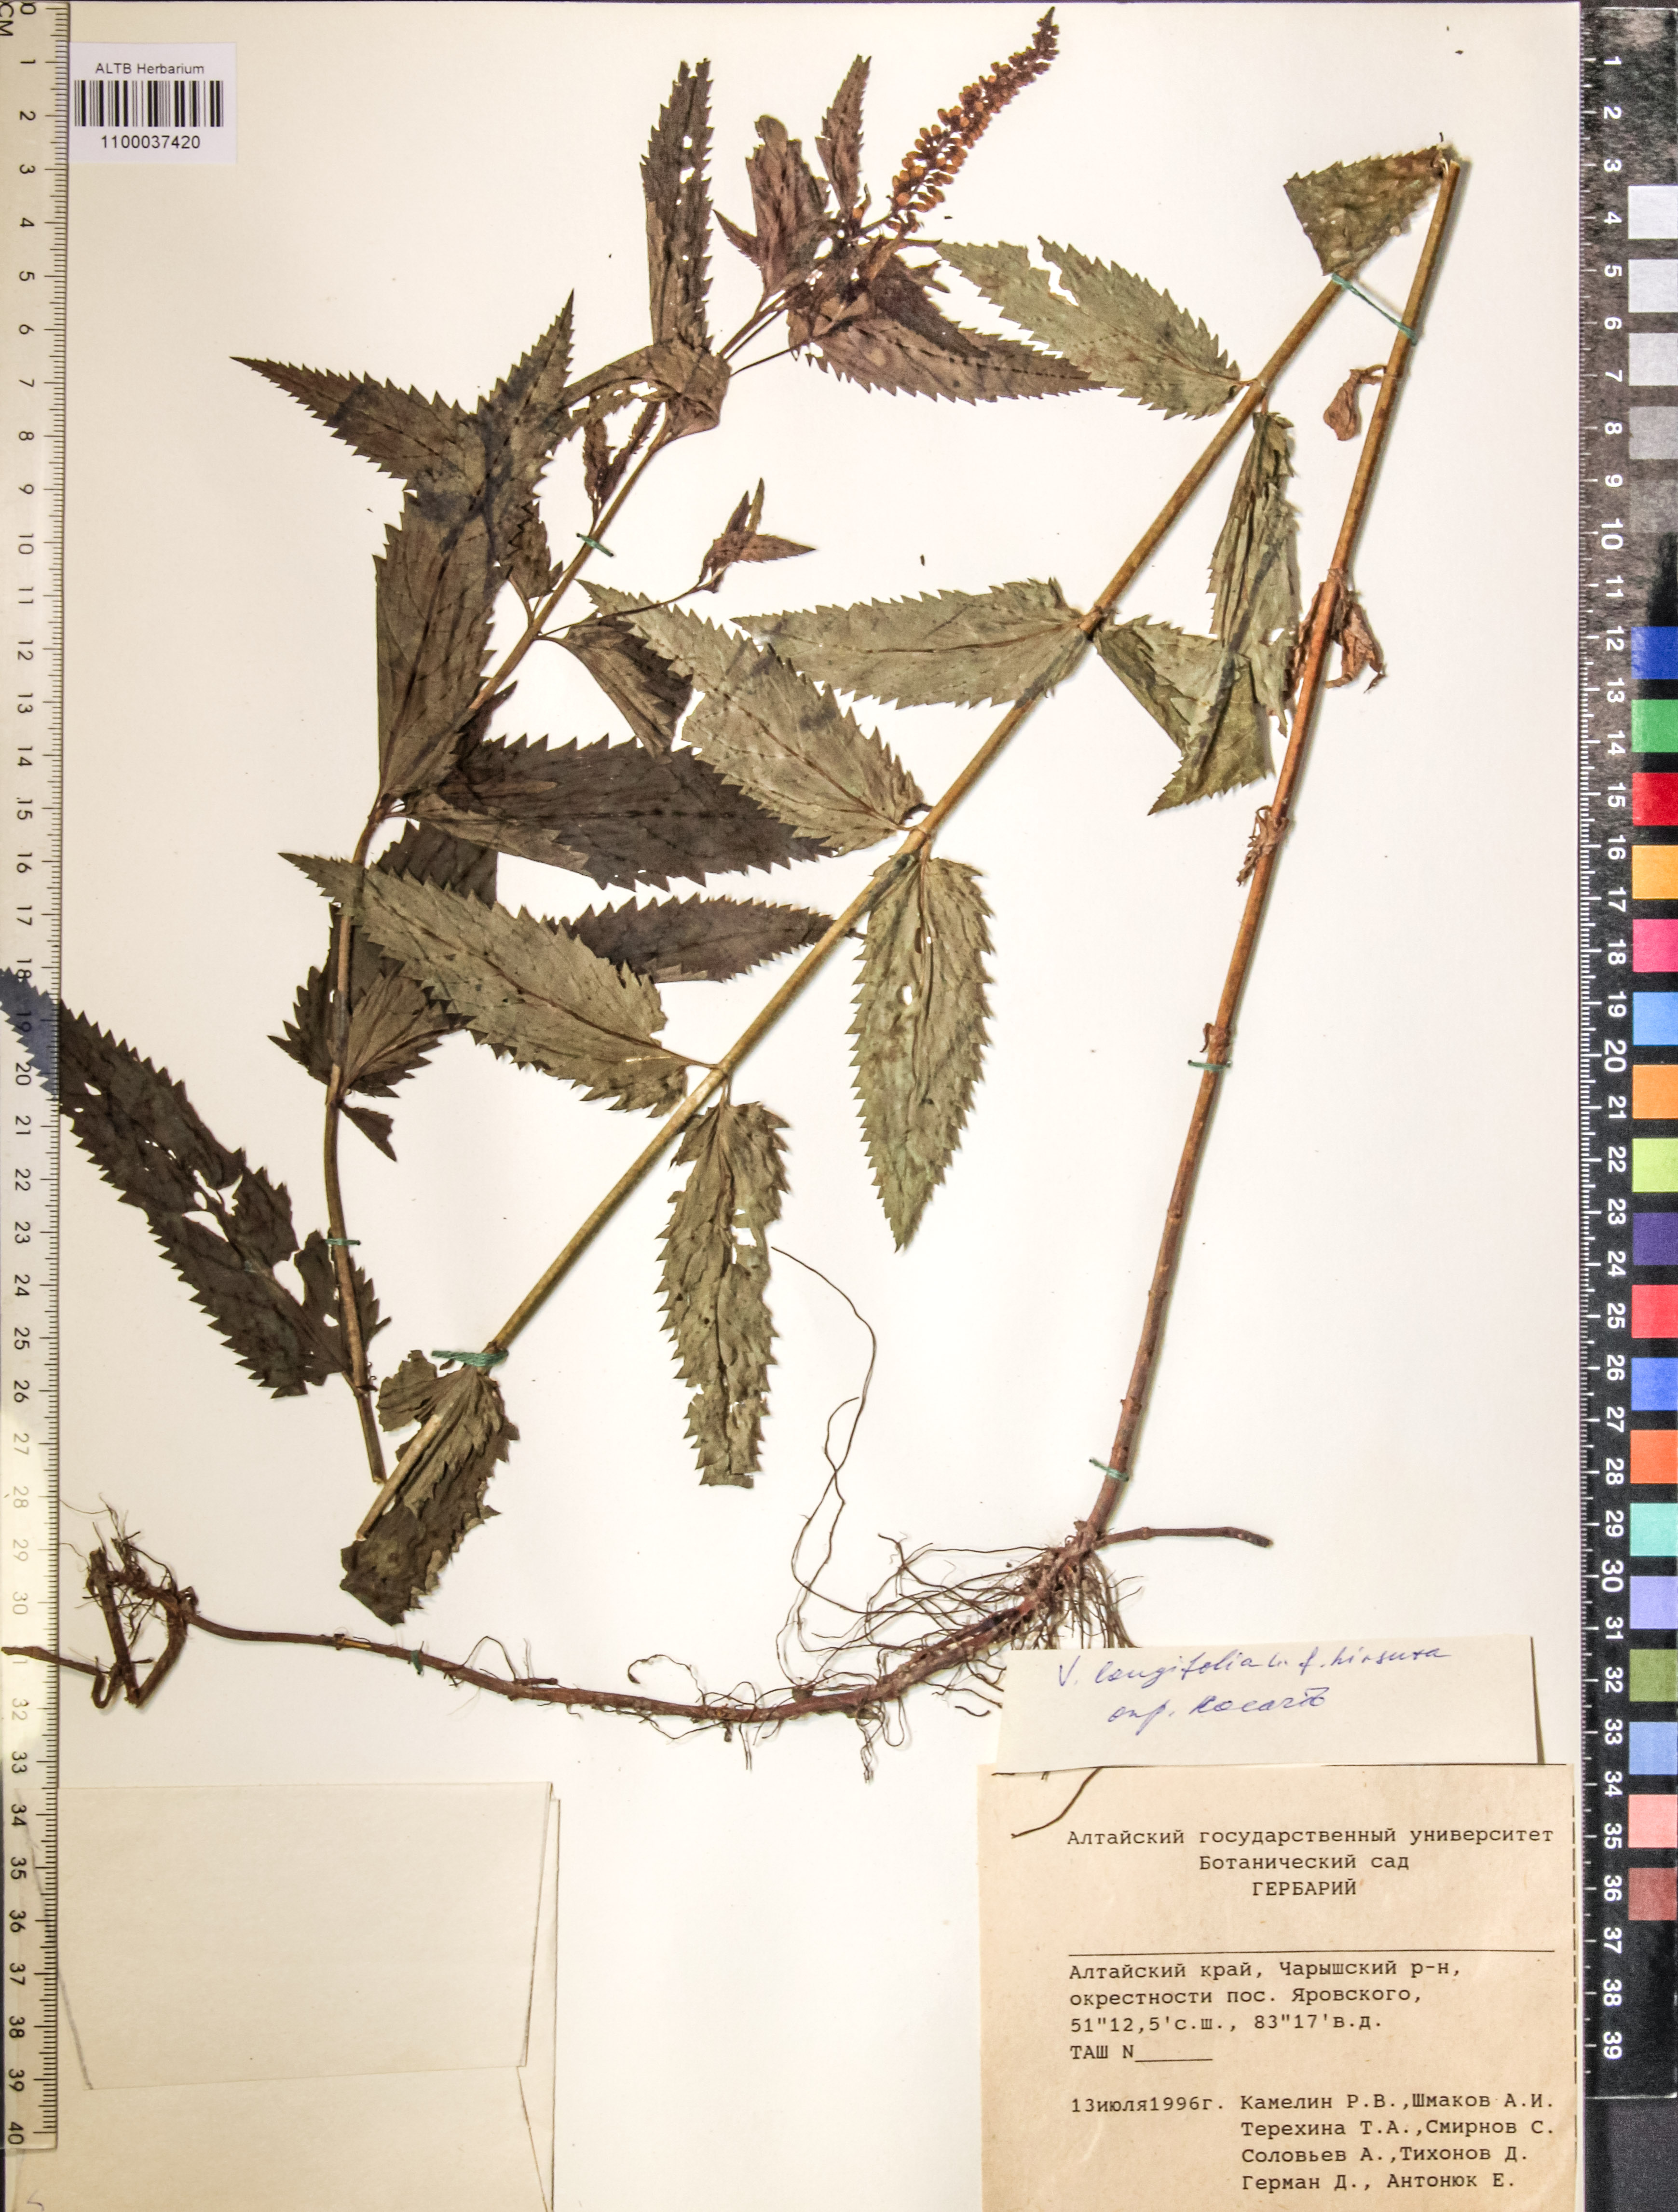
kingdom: Plantae
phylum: Tracheophyta
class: Magnoliopsida
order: Lamiales
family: Plantaginaceae
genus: Veronica
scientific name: Veronica longifolia
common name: Garden speedwell
